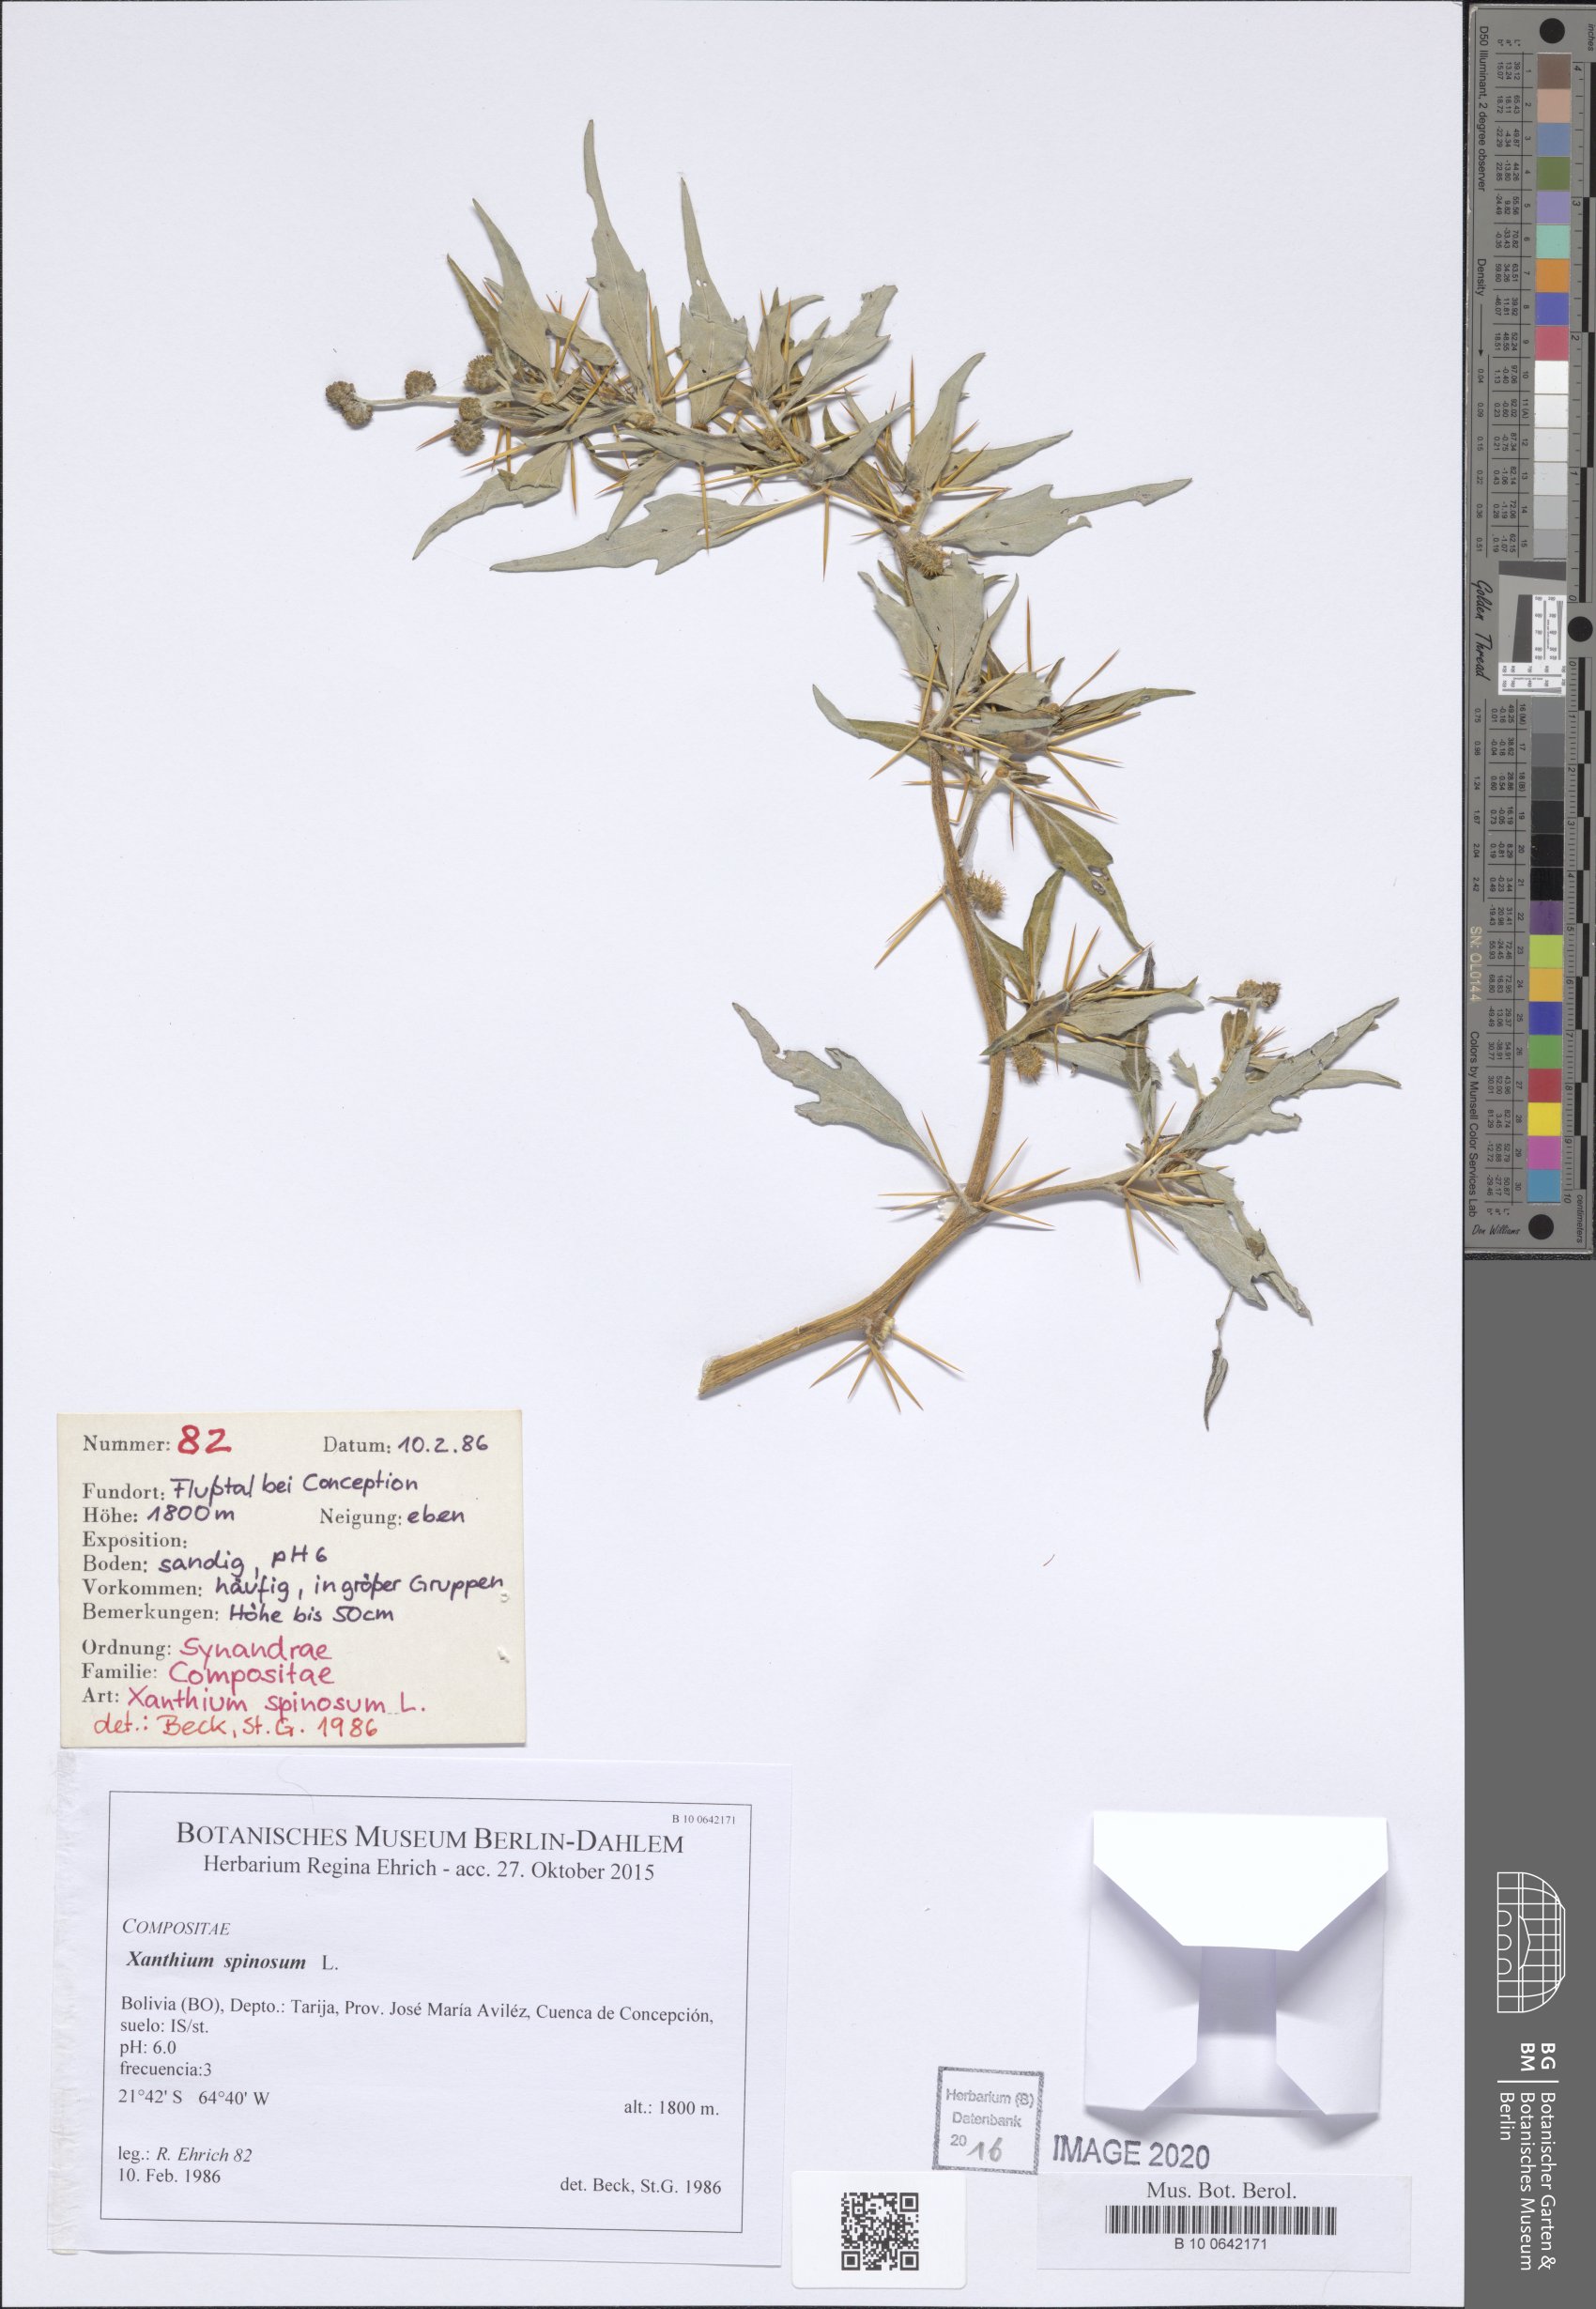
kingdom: Plantae
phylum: Tracheophyta
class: Magnoliopsida
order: Asterales
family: Asteraceae
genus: Xanthium
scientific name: Xanthium spinosum
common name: Spiny cocklebur
